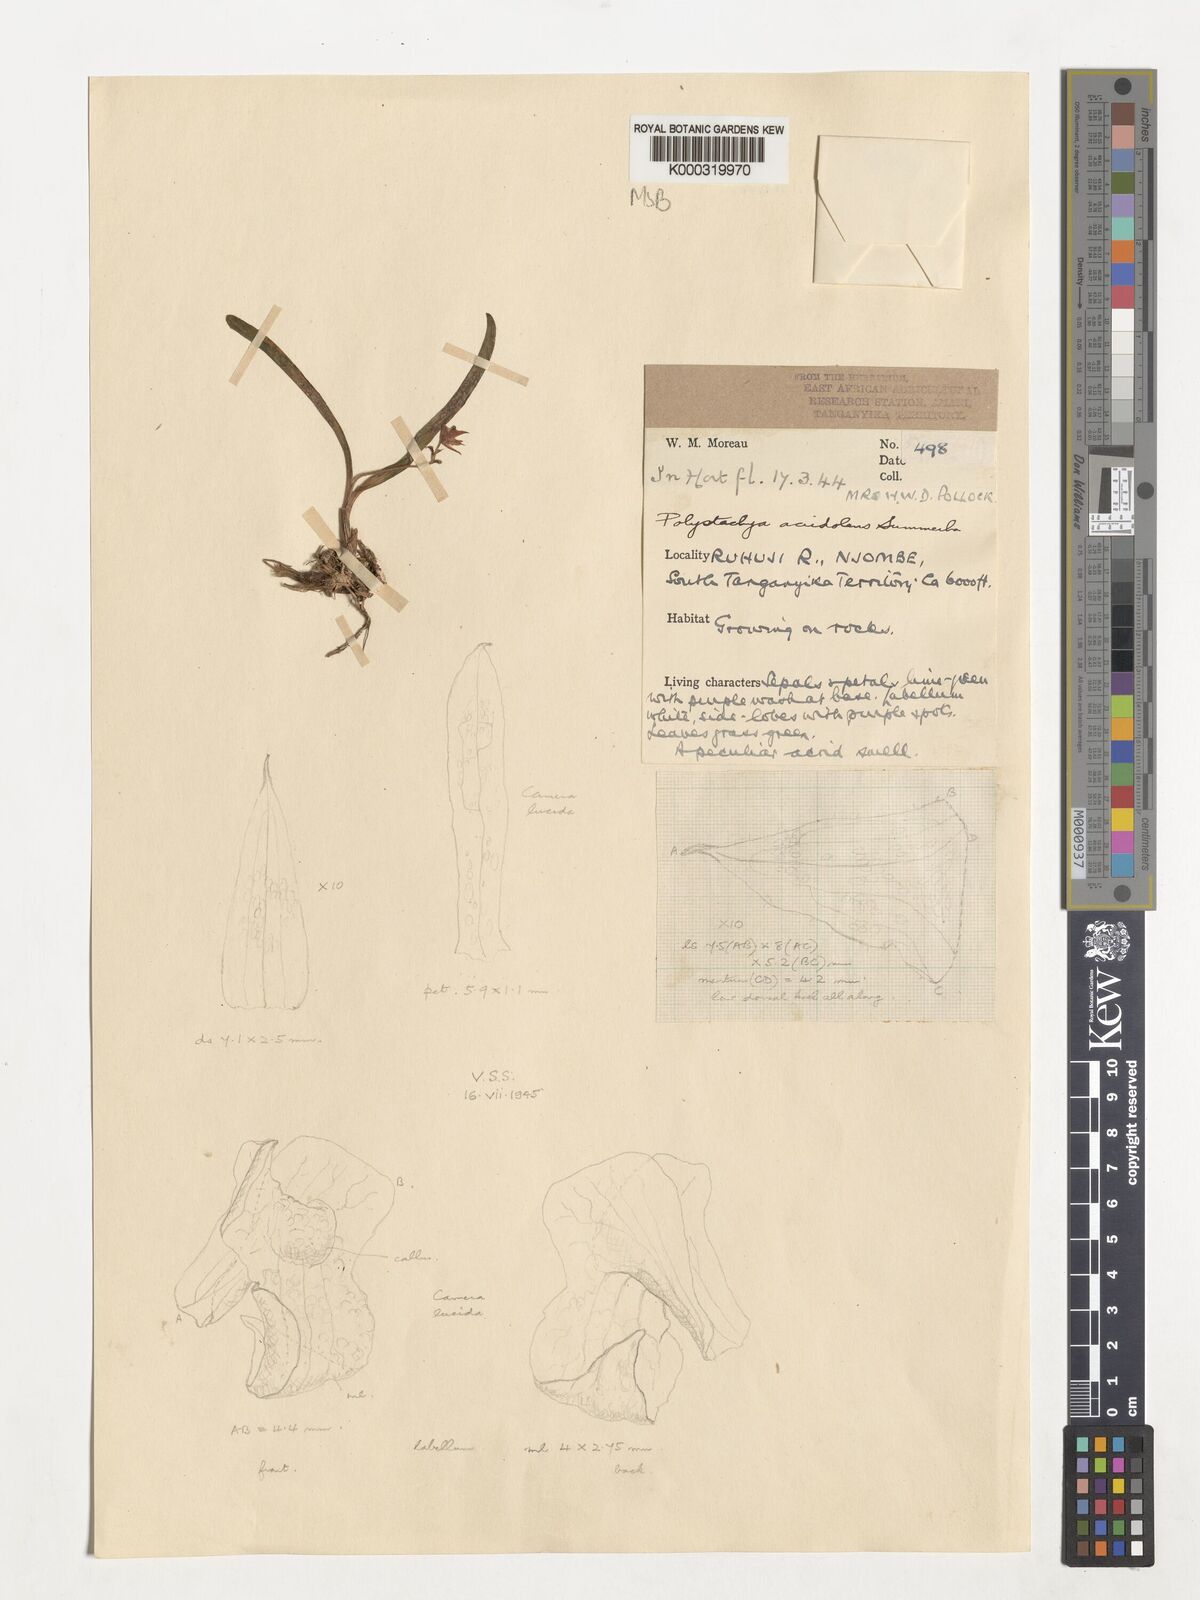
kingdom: Plantae
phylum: Tracheophyta
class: Liliopsida
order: Asparagales
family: Orchidaceae
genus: Polystachya
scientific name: Polystachya acridolens
